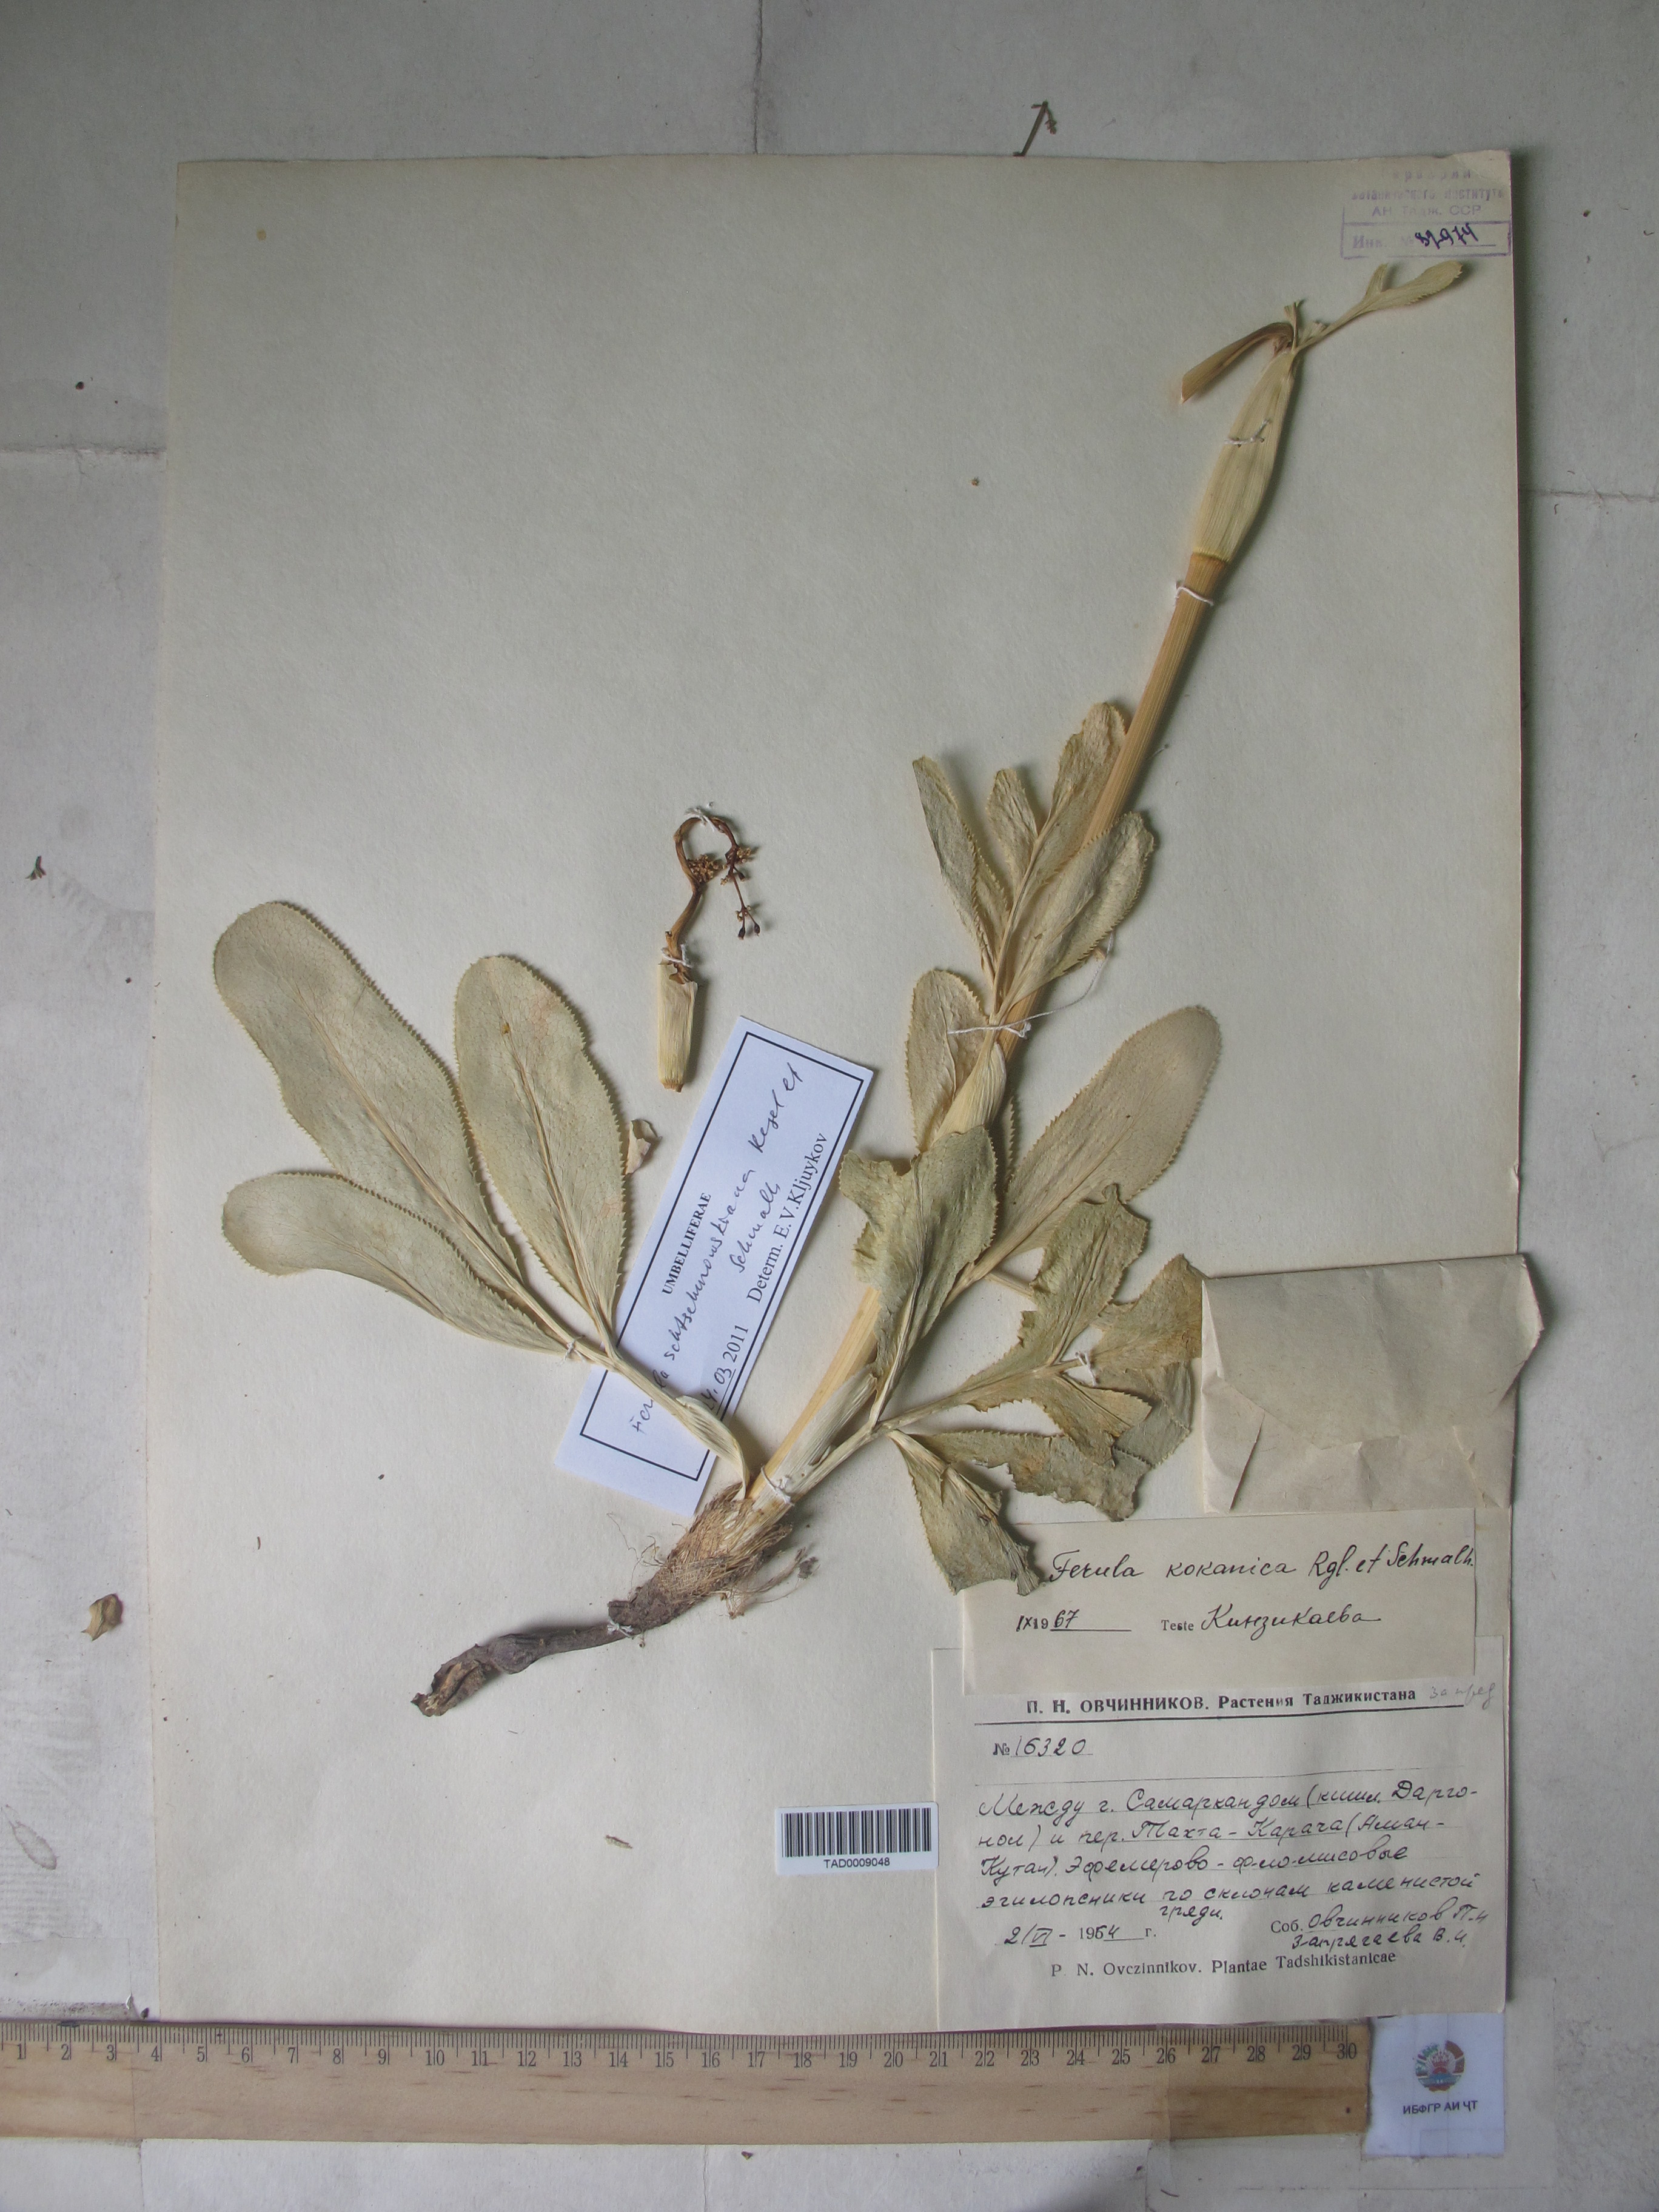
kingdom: Plantae
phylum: Tracheophyta
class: Magnoliopsida
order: Apiales
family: Apiaceae
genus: Ferula
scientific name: Ferula kokanica
